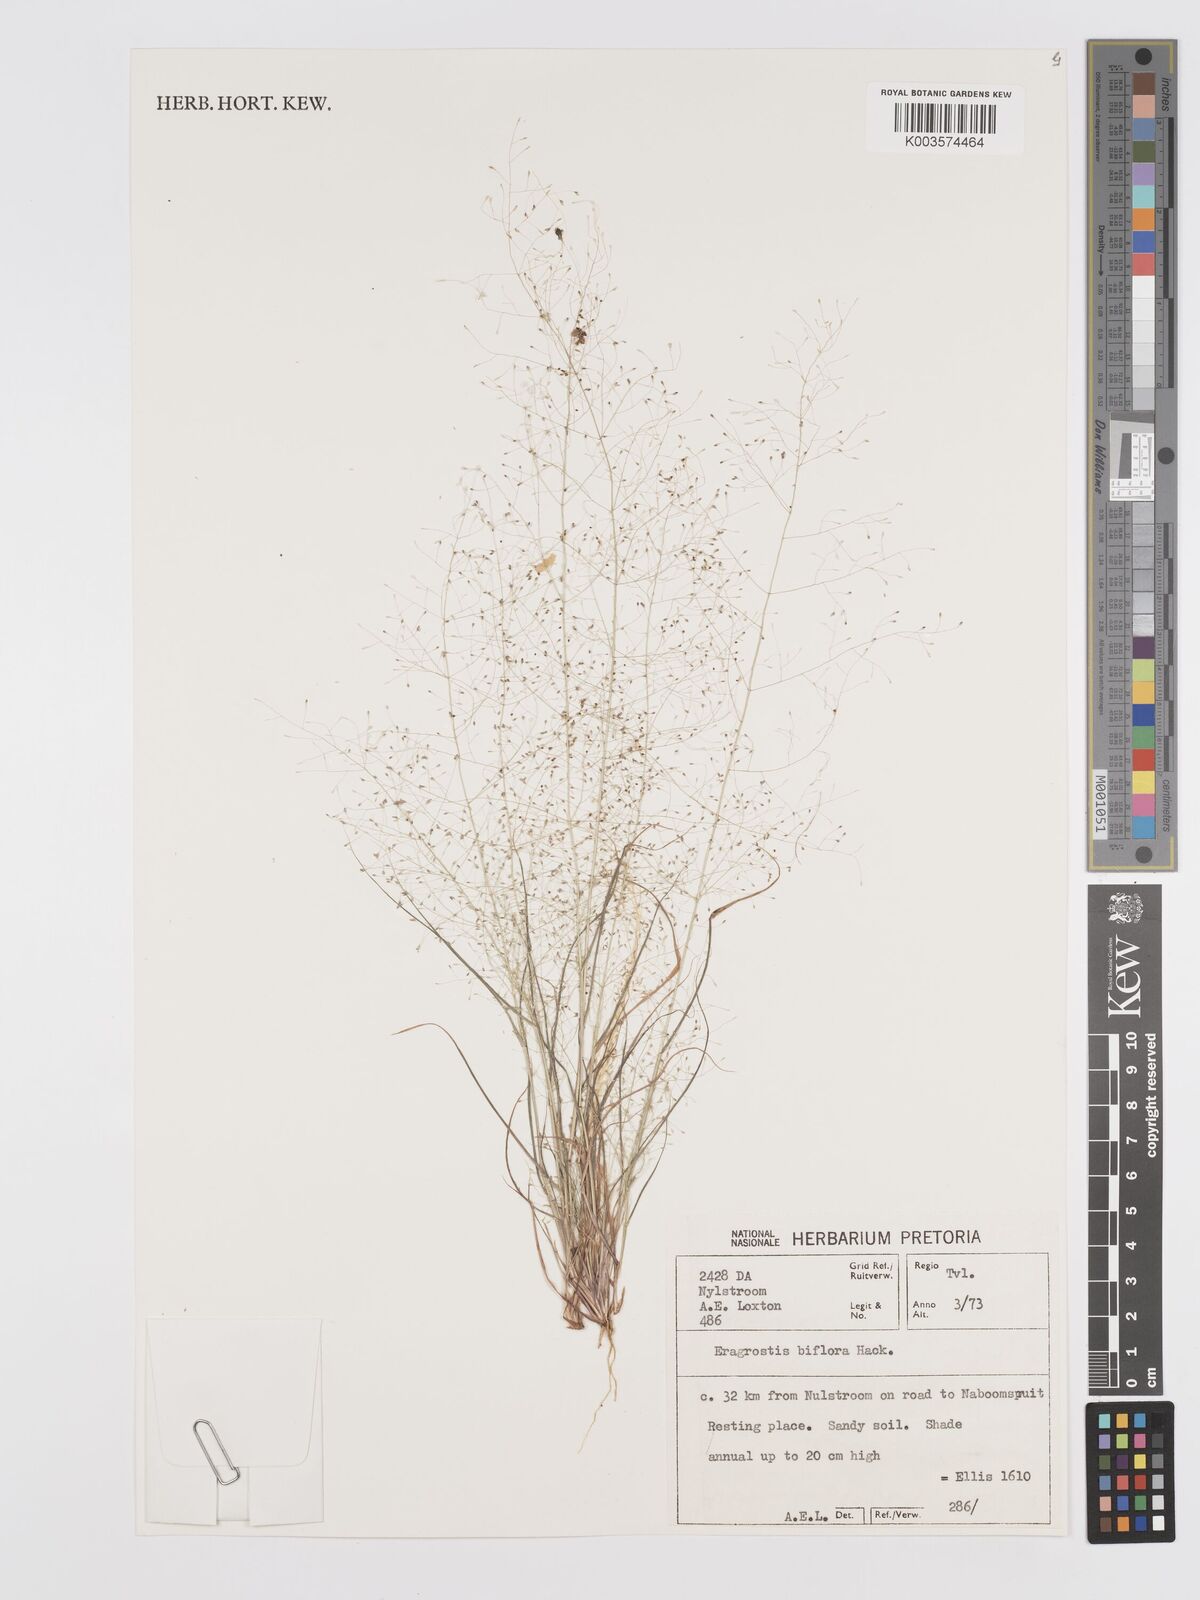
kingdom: Plantae
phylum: Tracheophyta
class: Liliopsida
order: Poales
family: Poaceae
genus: Eragrostis
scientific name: Eragrostis biflora
